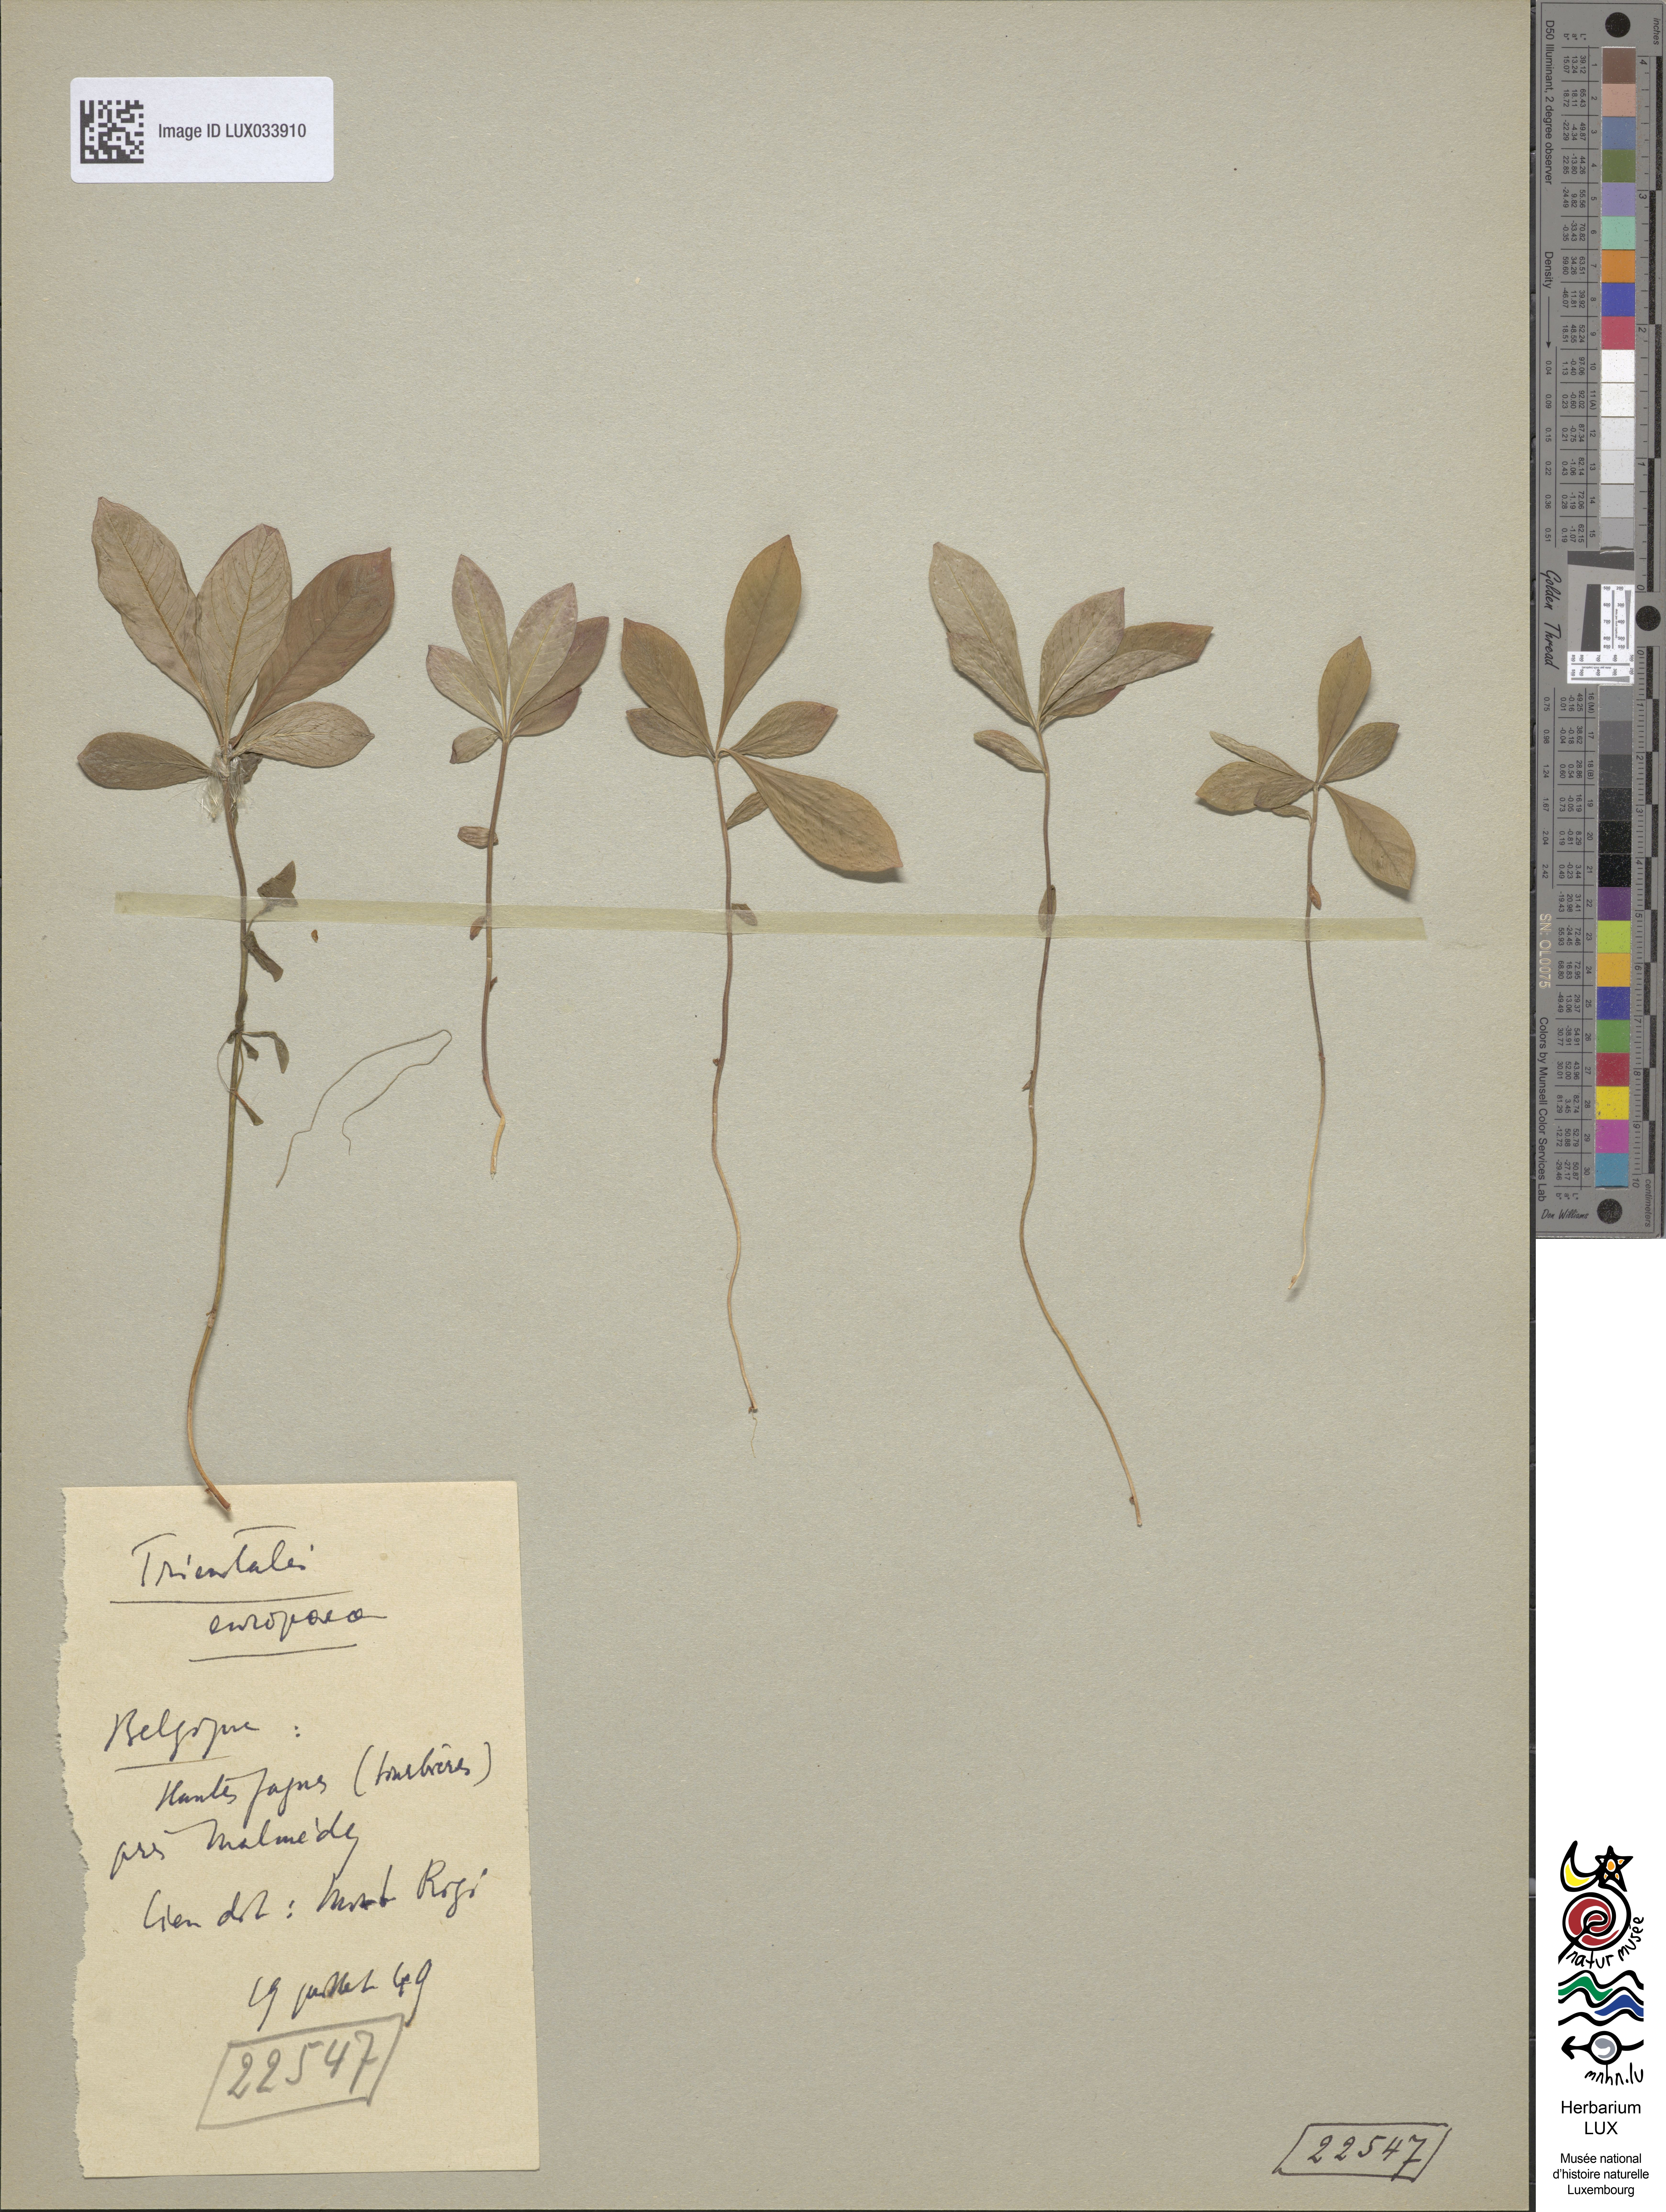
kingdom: Plantae
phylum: Tracheophyta
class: Magnoliopsida
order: Ericales
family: Primulaceae
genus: Lysimachia
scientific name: Lysimachia europaea
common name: Arctic starflower
